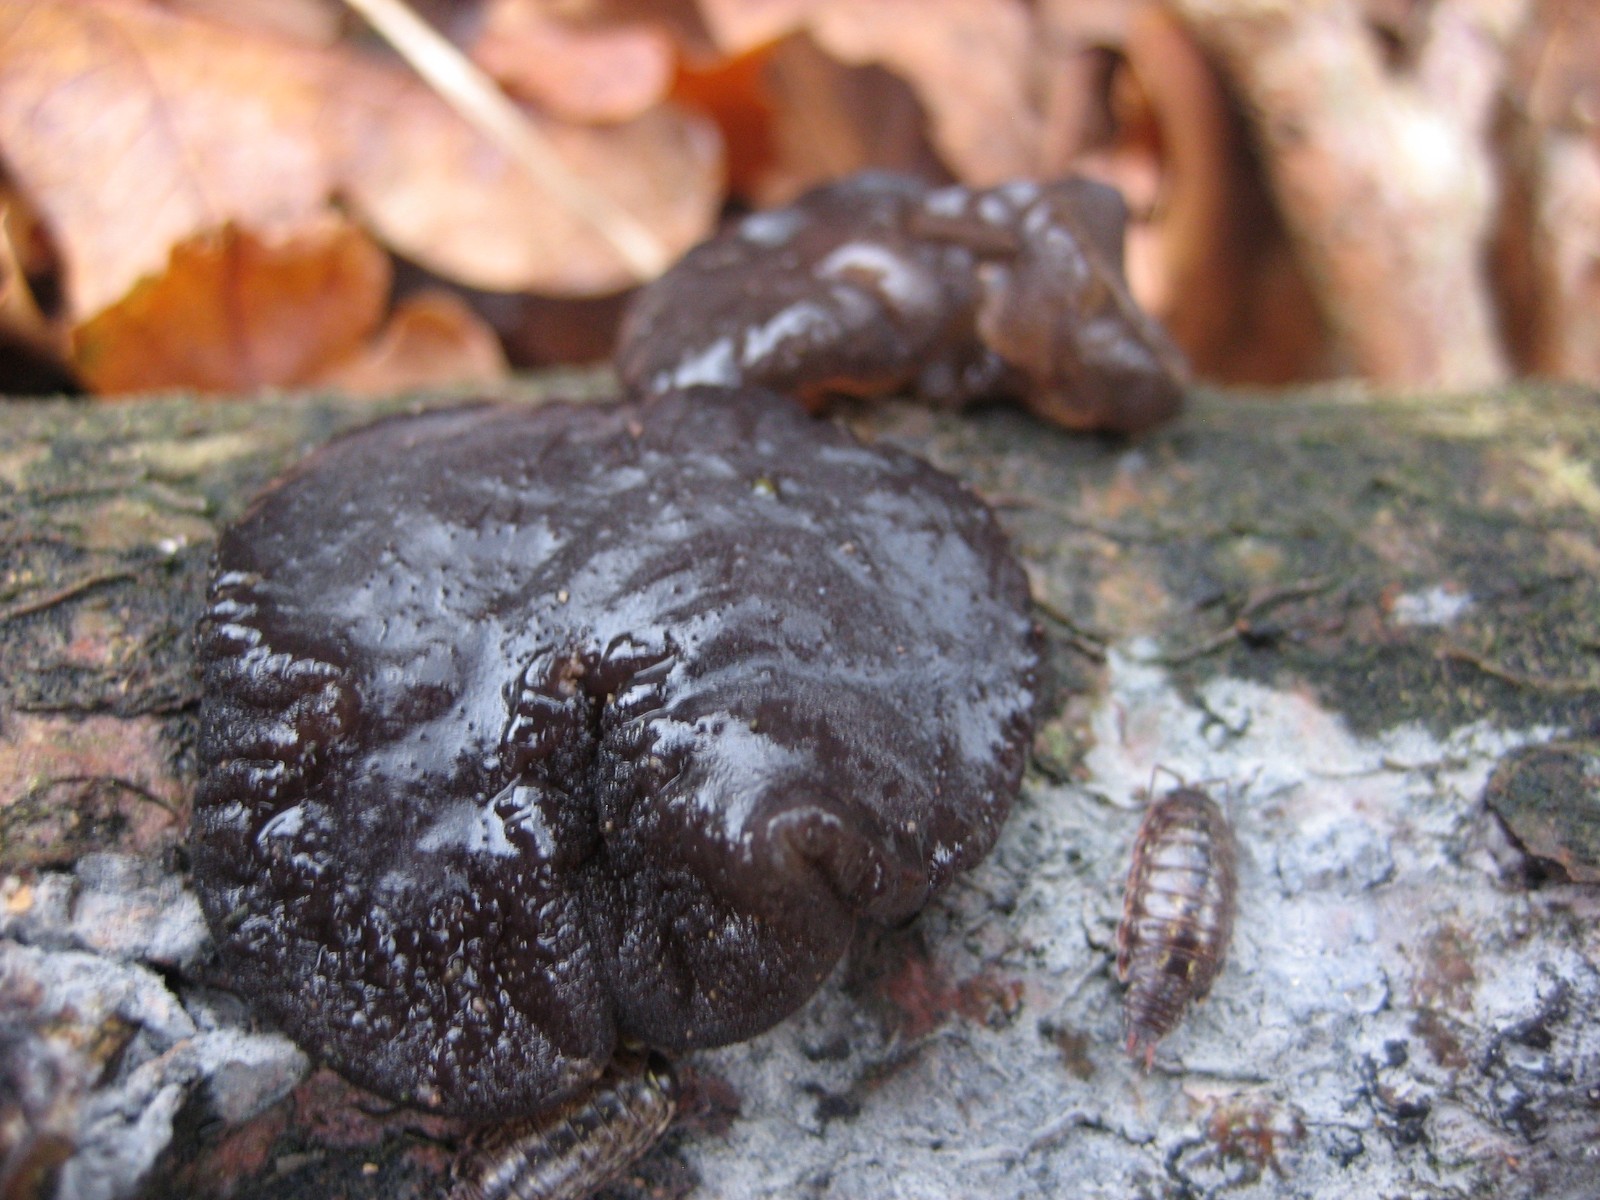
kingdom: Fungi
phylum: Basidiomycota
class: Agaricomycetes
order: Auriculariales
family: Auriculariaceae
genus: Exidia
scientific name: Exidia glandulosa
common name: ege-bævretop
